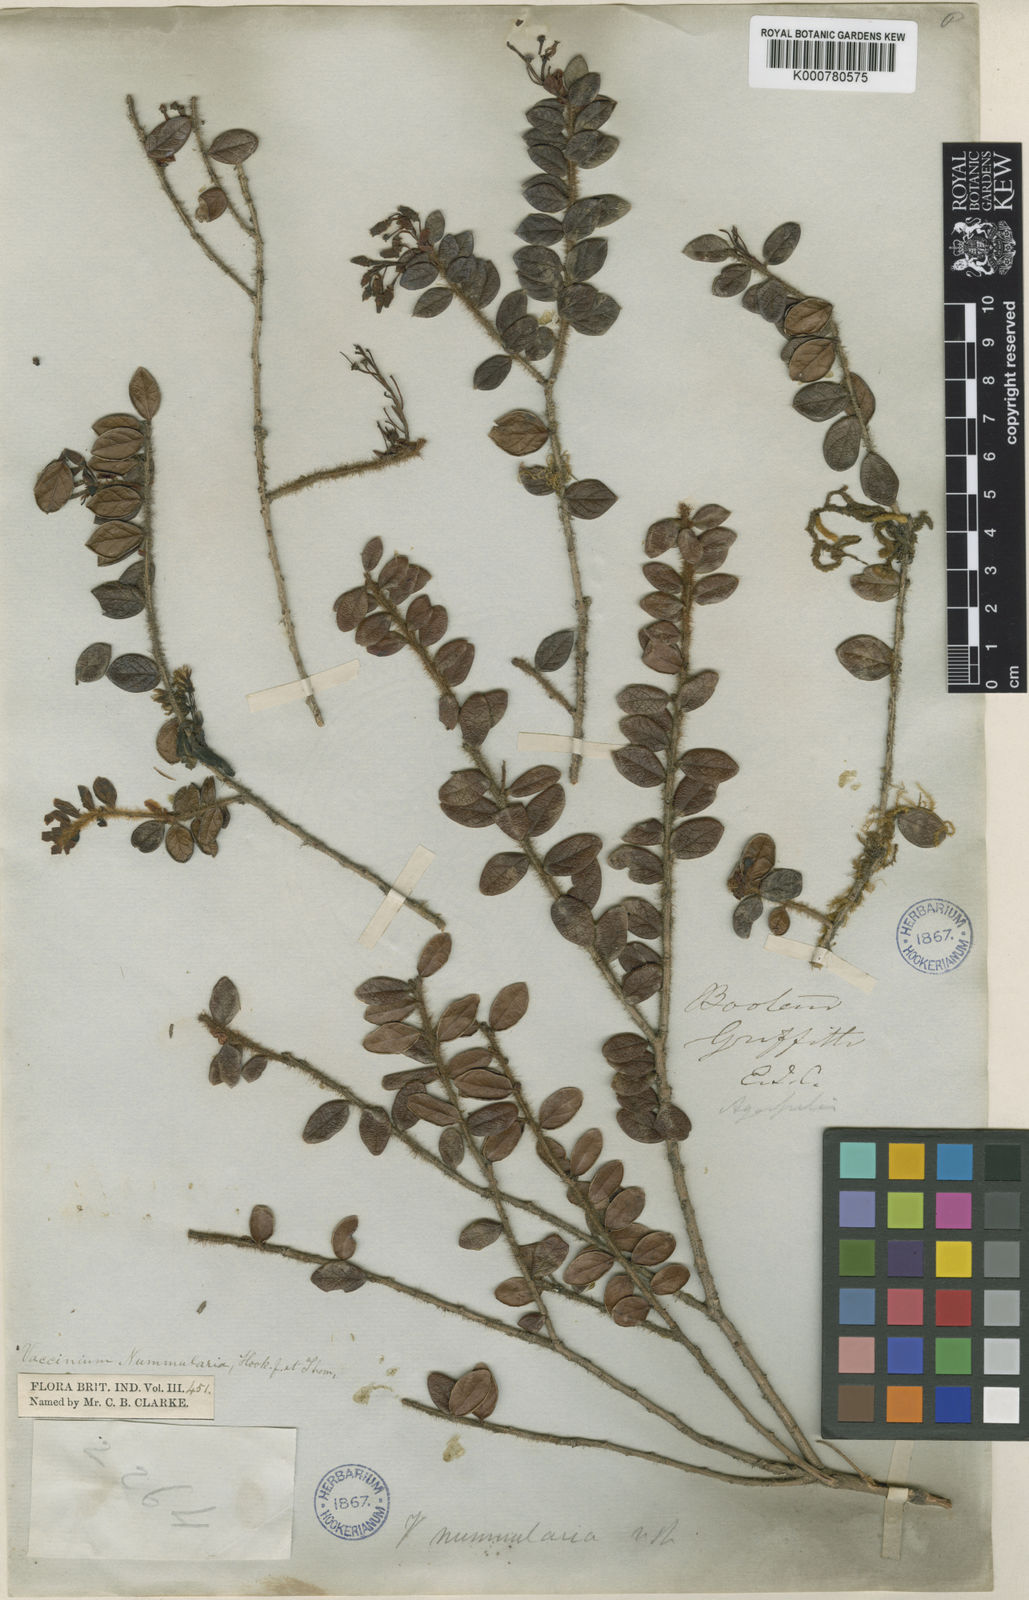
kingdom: Plantae
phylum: Tracheophyta
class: Magnoliopsida
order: Ericales
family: Ericaceae
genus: Vaccinium
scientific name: Vaccinium nummularia
